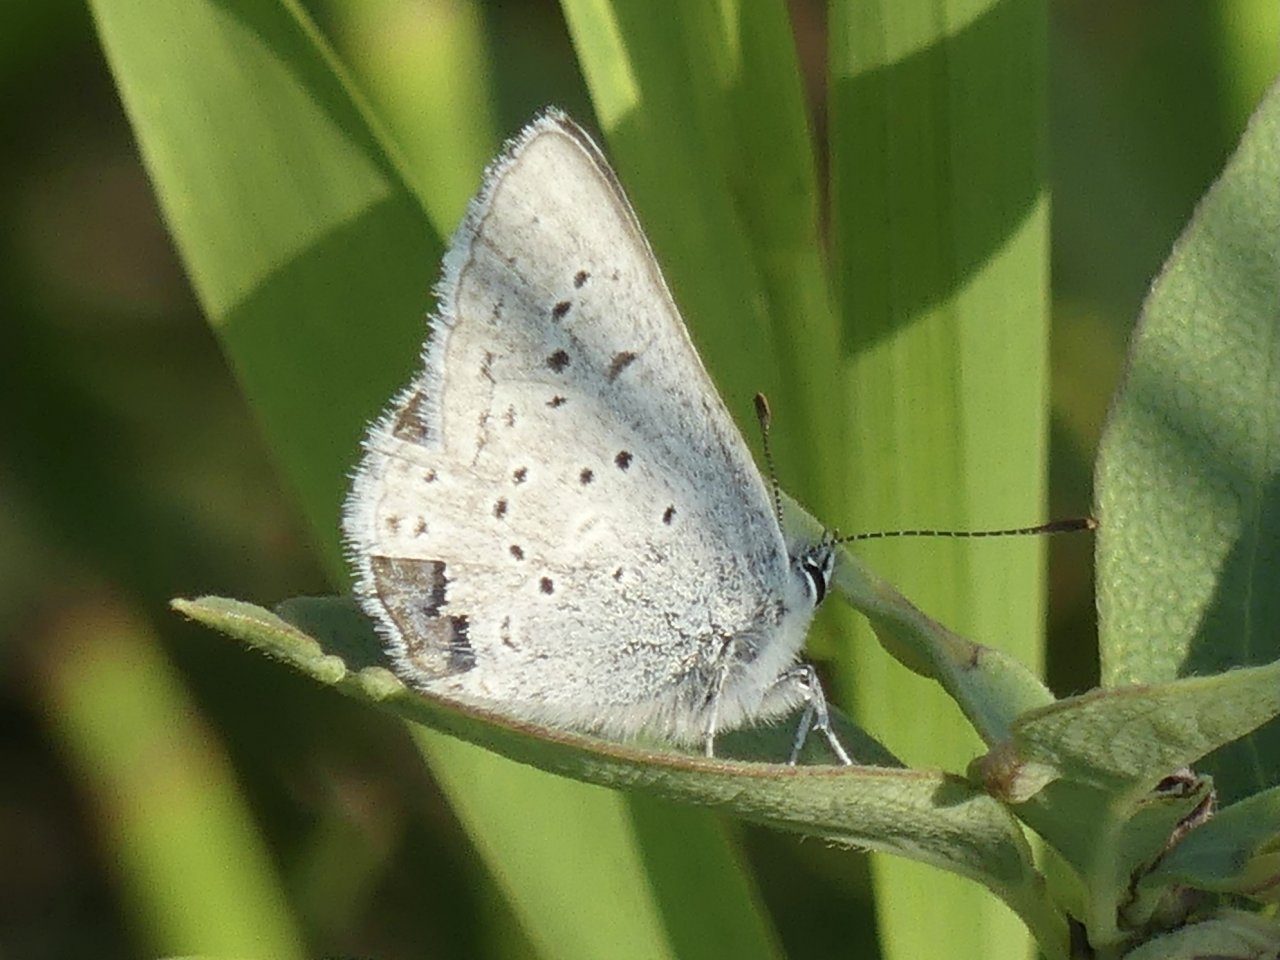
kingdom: Animalia
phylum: Arthropoda
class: Insecta
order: Lepidoptera
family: Lycaenidae
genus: Plebejus
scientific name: Plebejus saepiolus
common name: Greenish Blue
